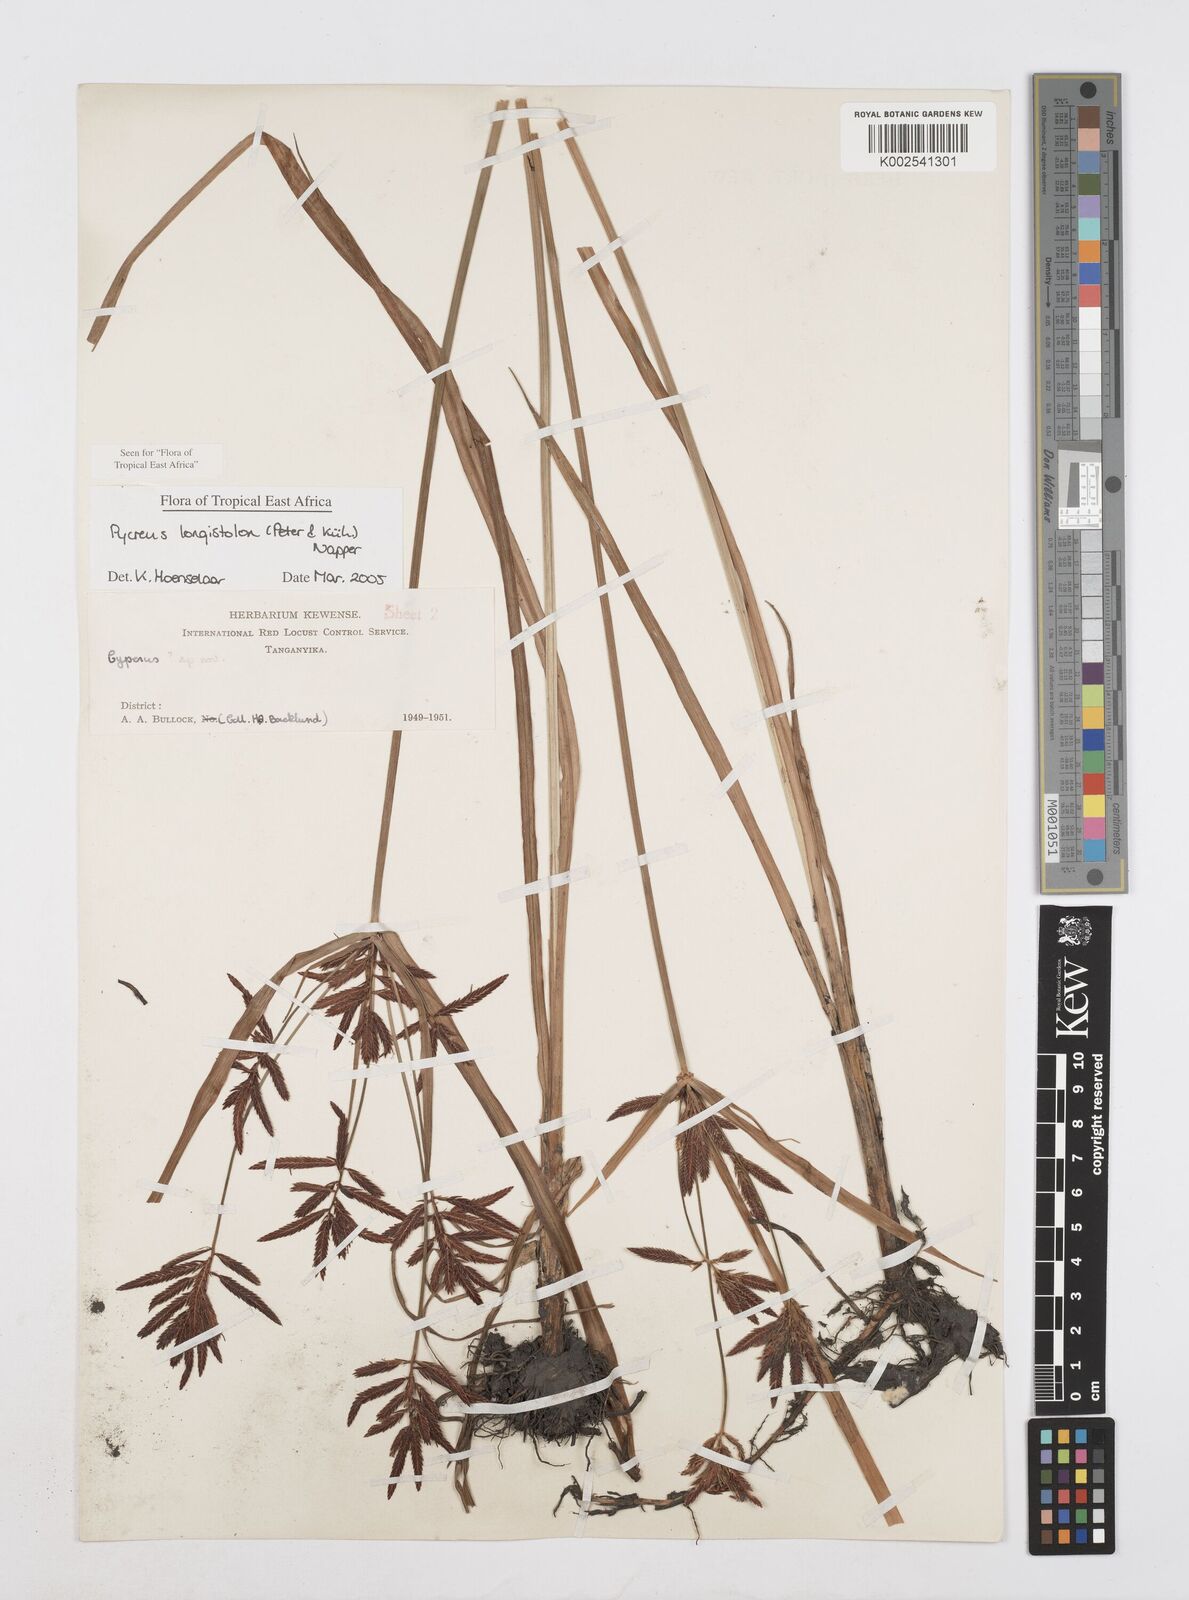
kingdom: Plantae
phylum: Tracheophyta
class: Liliopsida
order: Poales
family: Cyperaceae
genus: Cyperus
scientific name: Cyperus chrysanthus
